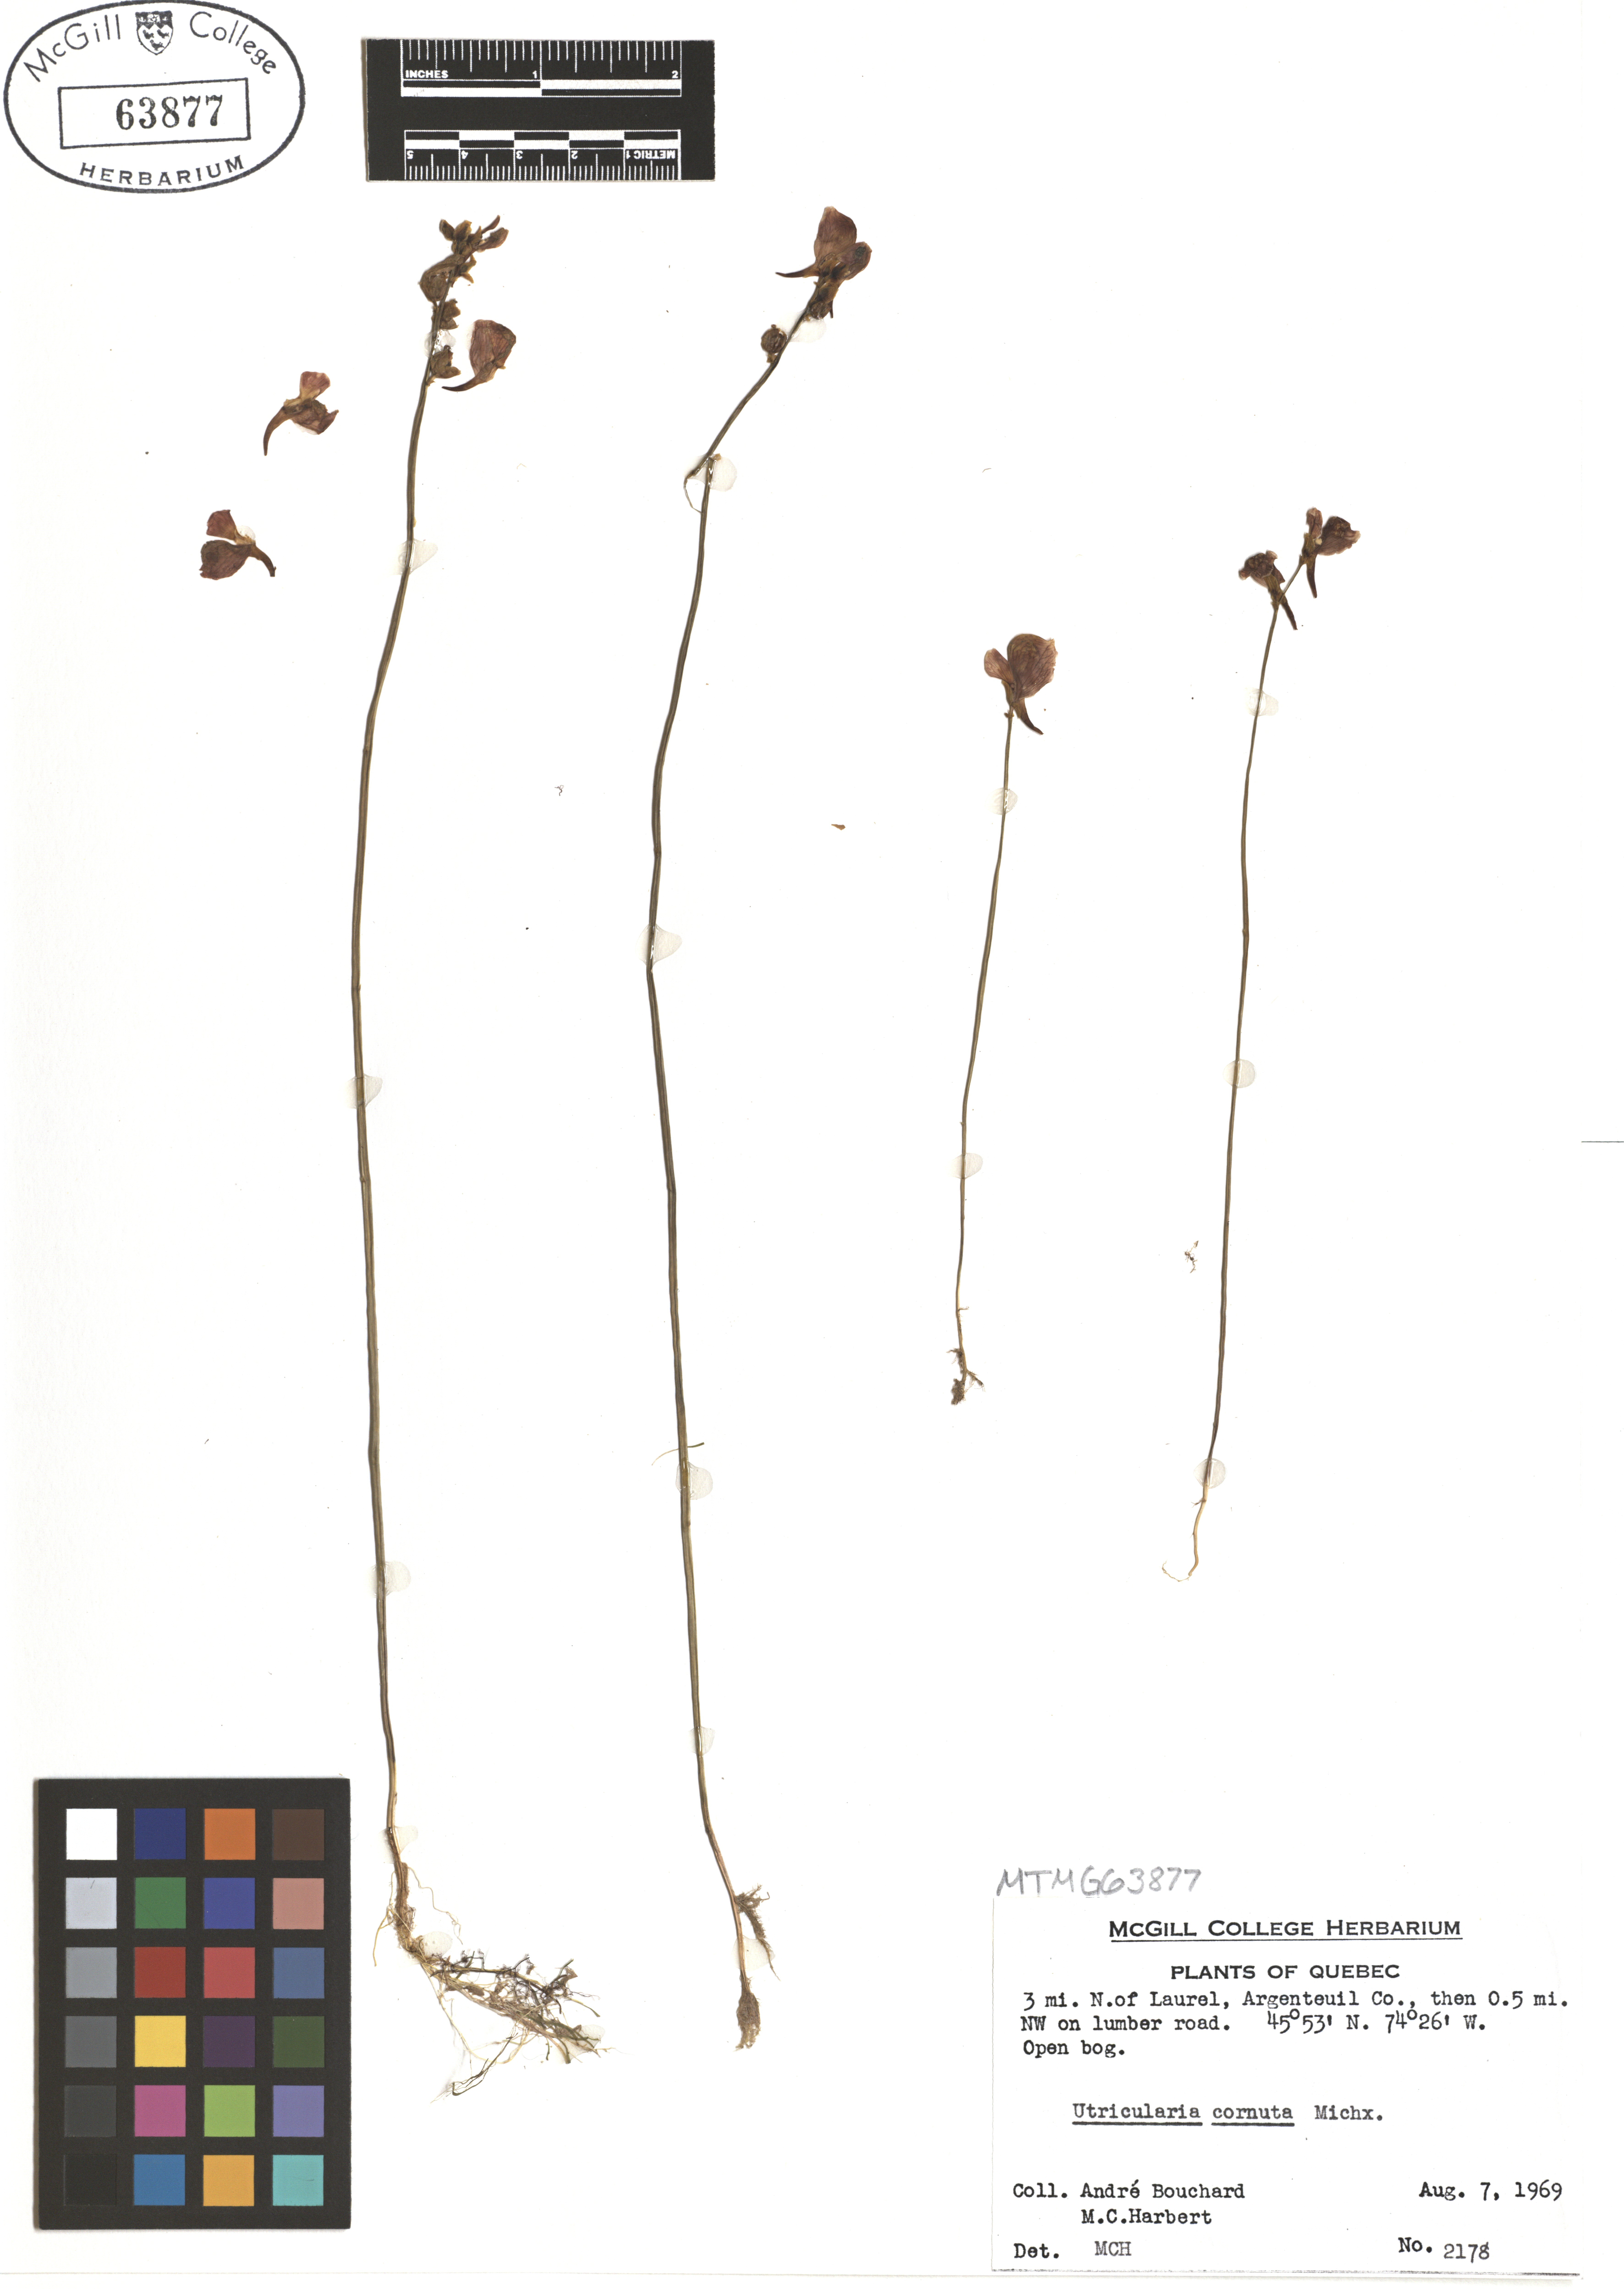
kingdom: Plantae
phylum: Tracheophyta
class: Magnoliopsida
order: Lamiales
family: Lentibulariaceae
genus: Utricularia
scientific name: Utricularia cornuta
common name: Horned bladderwort
